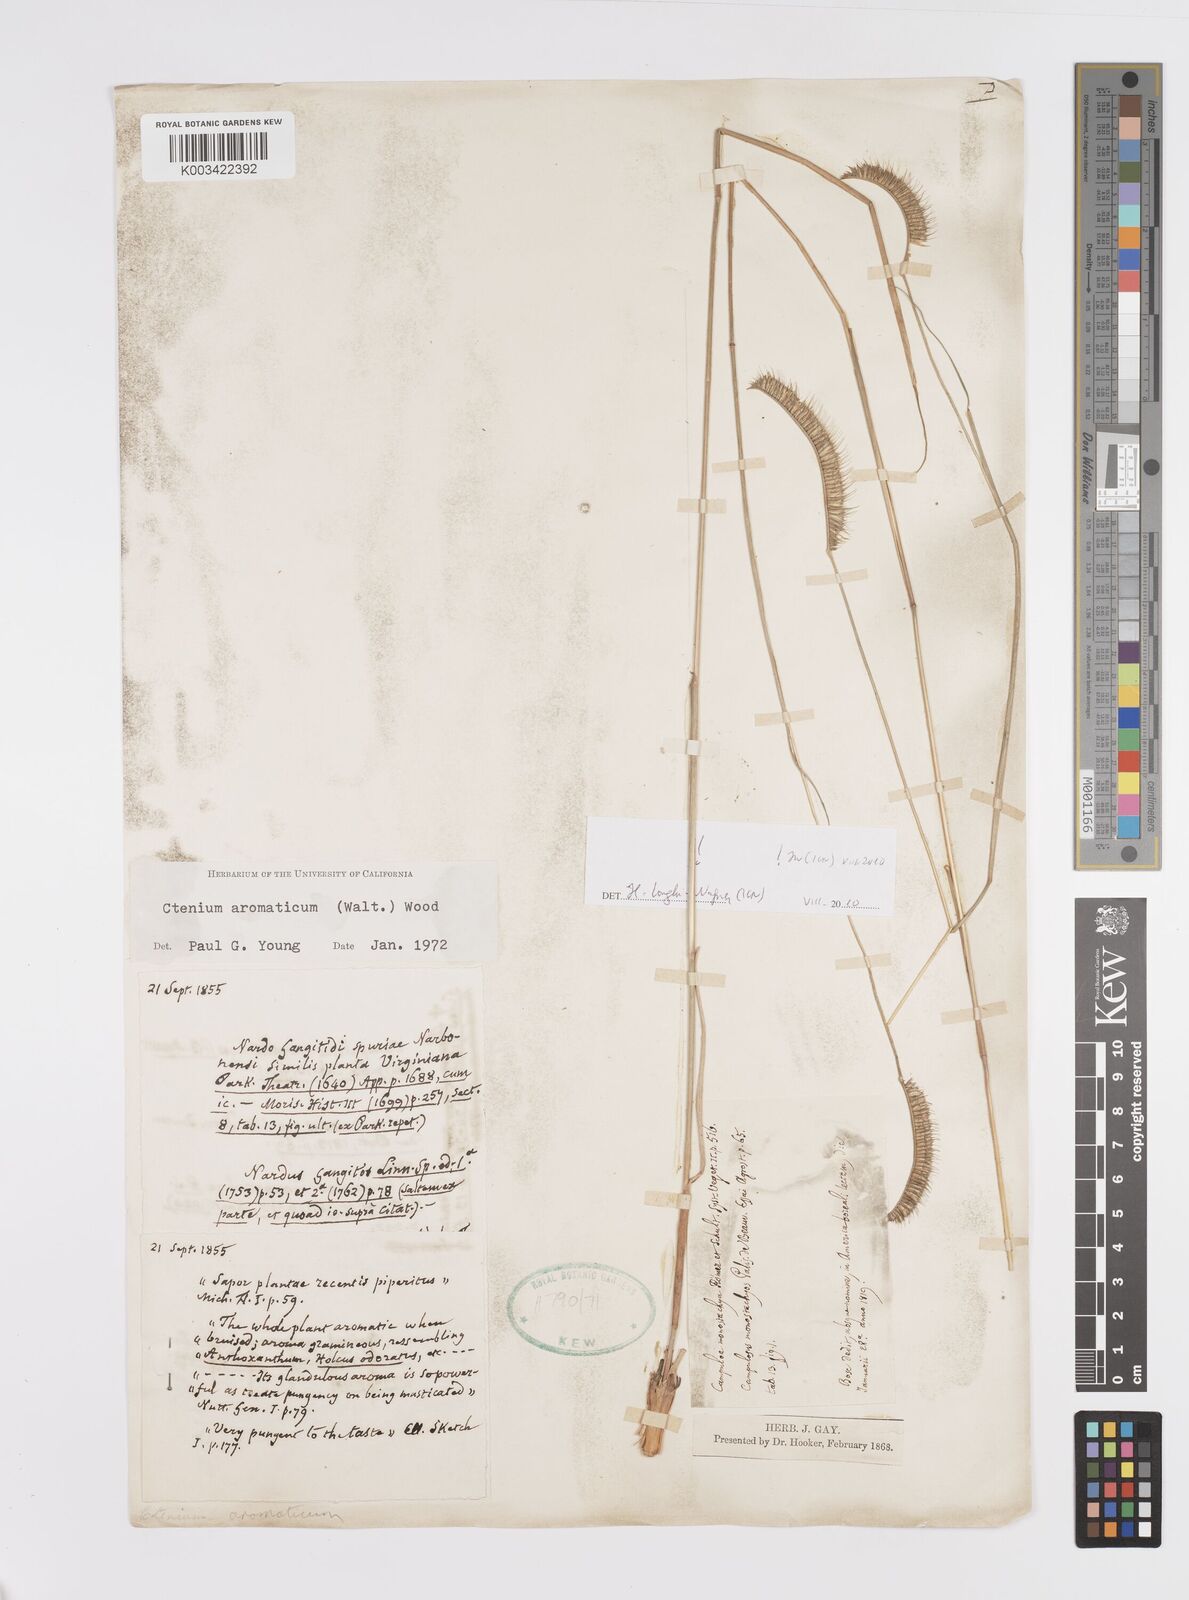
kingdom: Plantae
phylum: Tracheophyta
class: Liliopsida
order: Poales
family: Poaceae
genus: Ctenium
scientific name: Ctenium aromaticum
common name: Toothache grass
